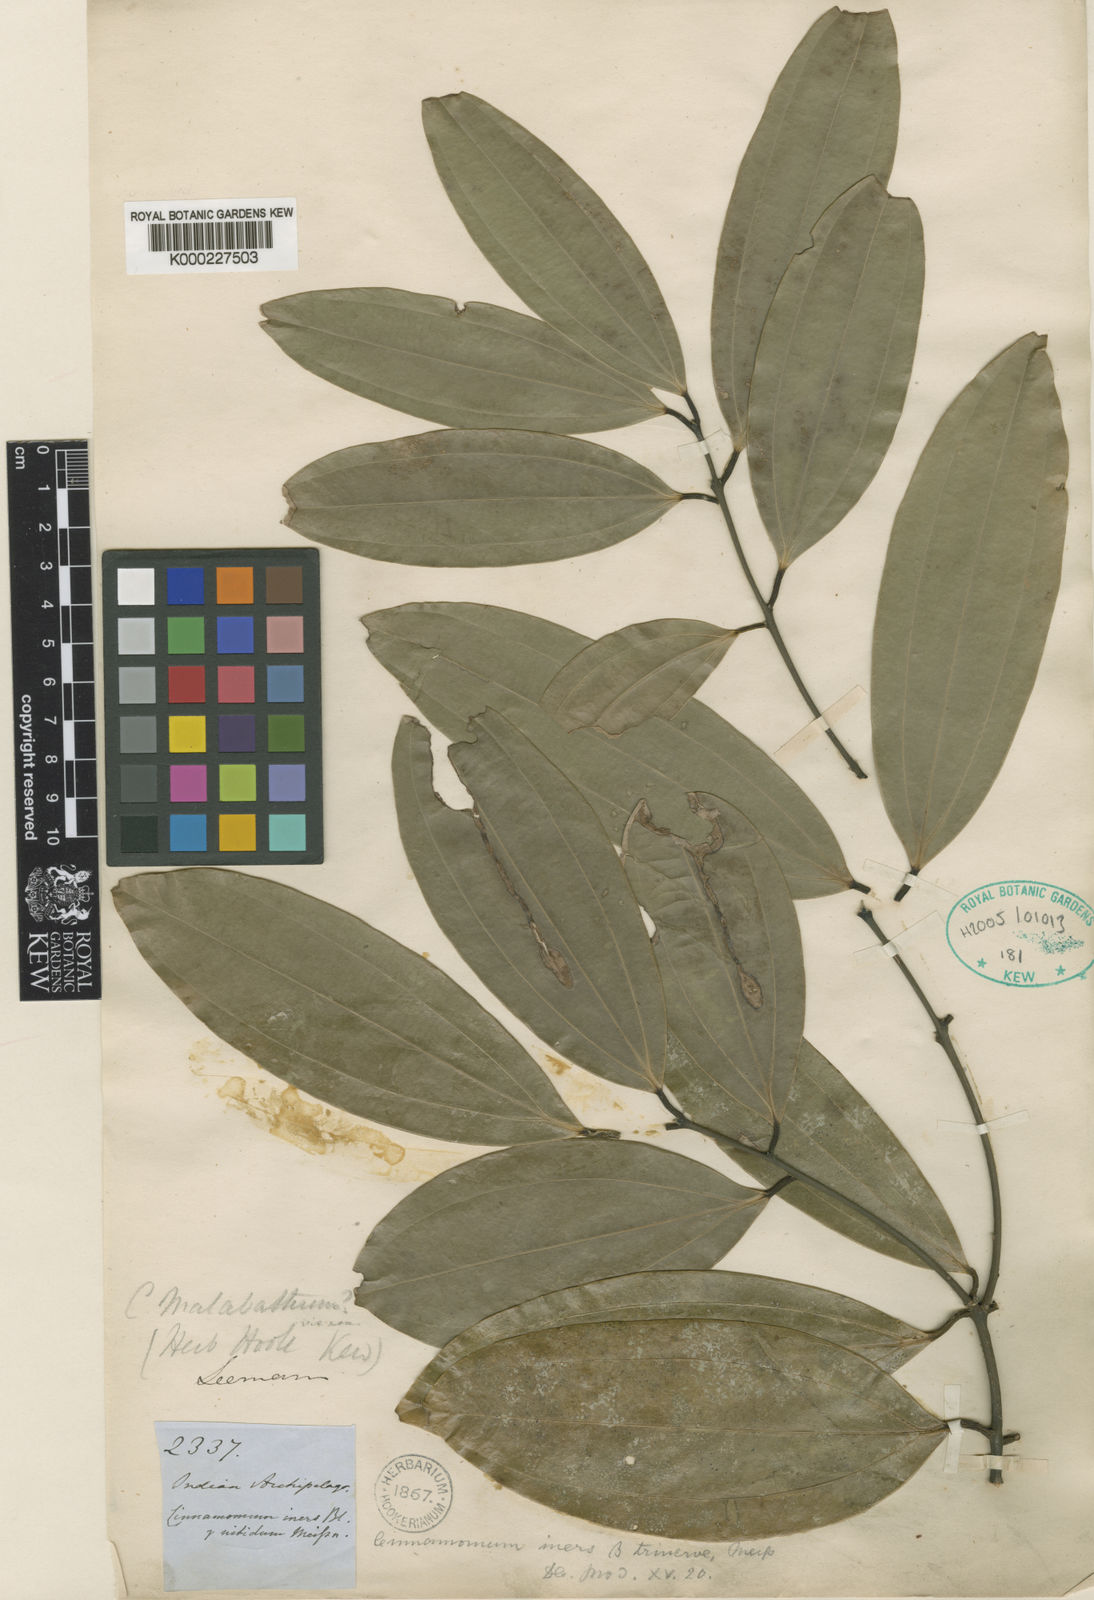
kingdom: Plantae
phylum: Tracheophyta
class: Magnoliopsida
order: Laurales
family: Lauraceae
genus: Cinnamomum
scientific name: Cinnamomum iners
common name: Wild cinnamon
